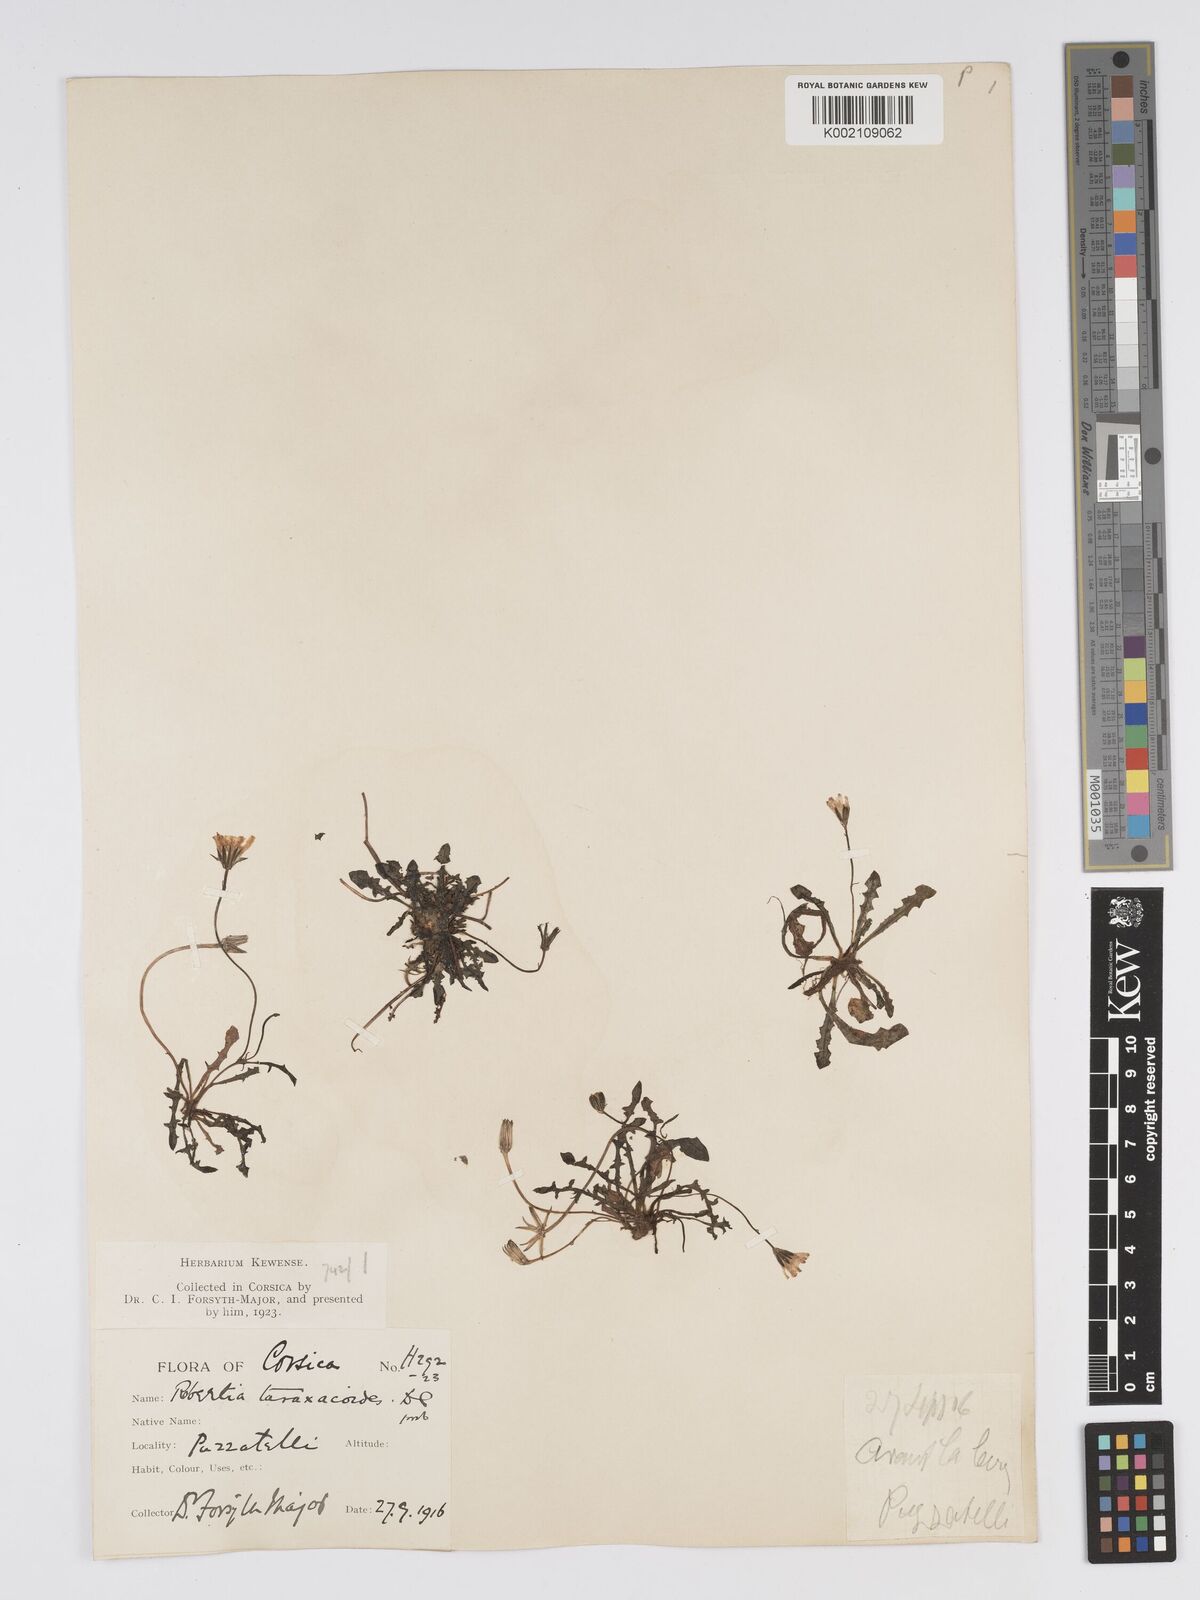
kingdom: Plantae
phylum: Tracheophyta
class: Magnoliopsida
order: Asterales
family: Asteraceae
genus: Crepis
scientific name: Crepis
